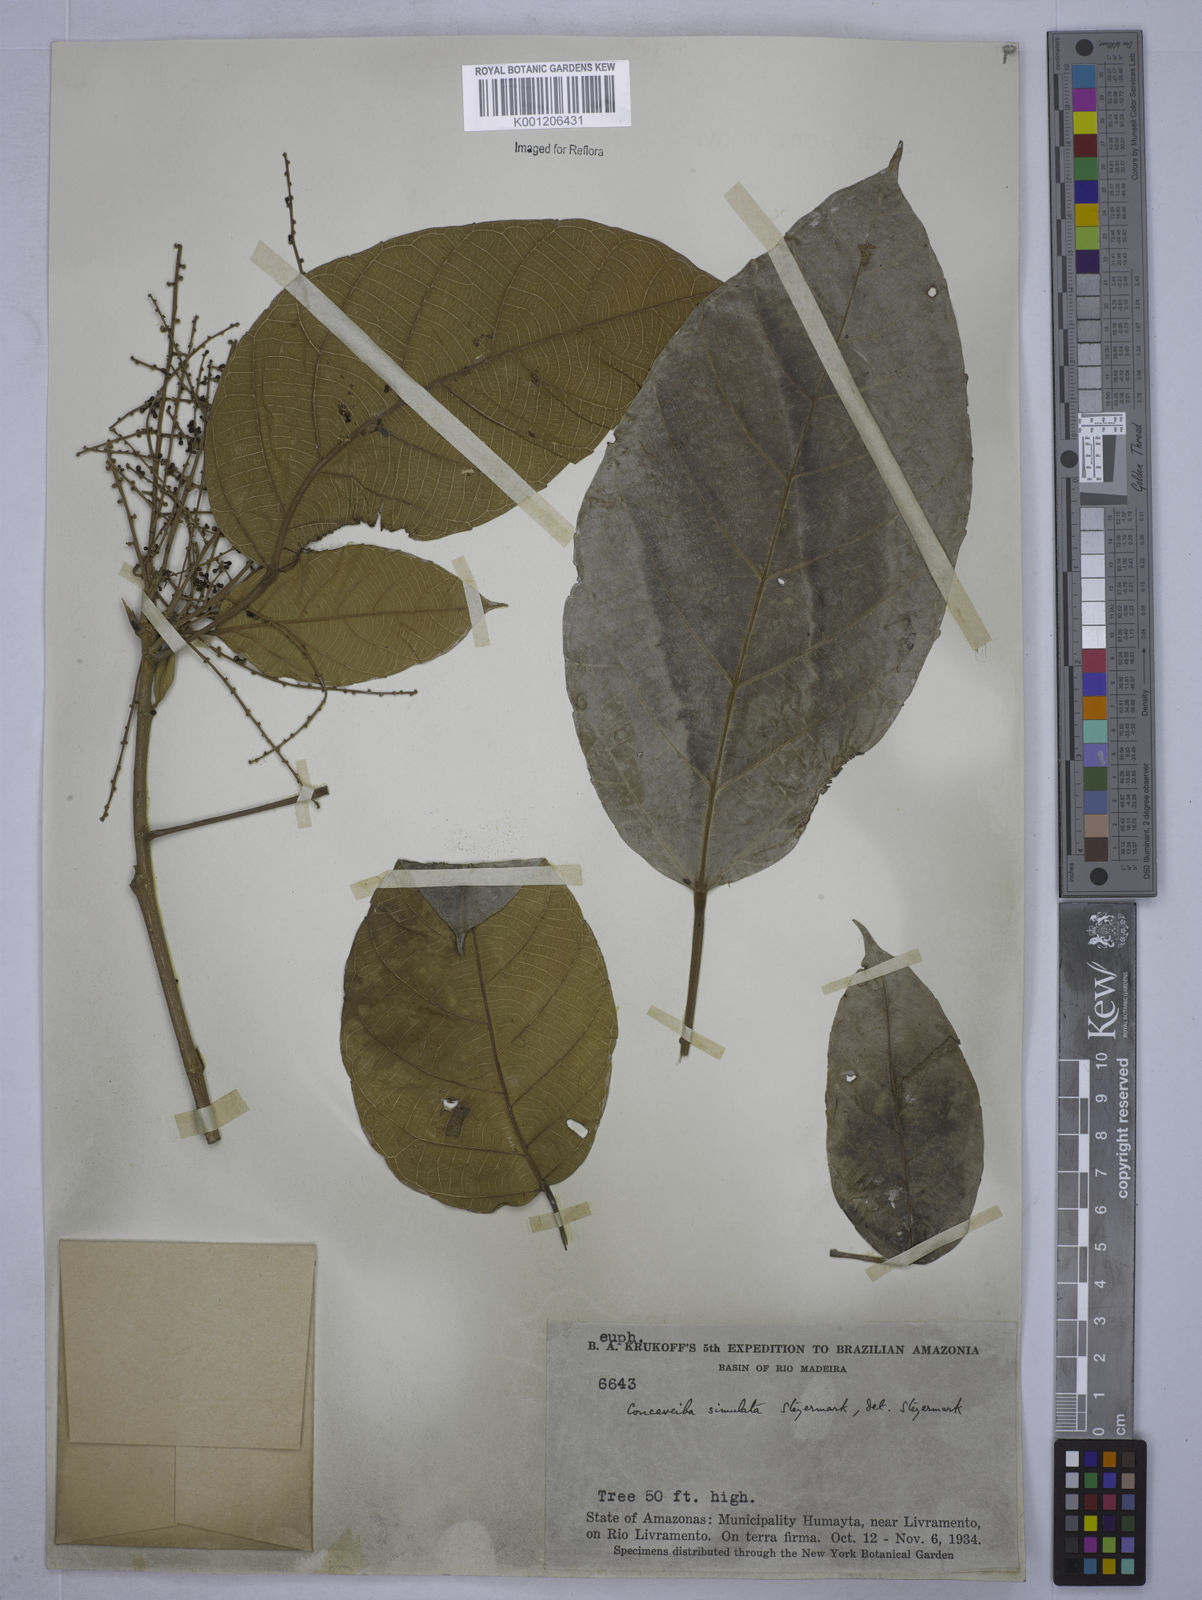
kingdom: Plantae
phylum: Tracheophyta
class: Magnoliopsida
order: Malpighiales
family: Euphorbiaceae
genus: Conceveiba
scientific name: Conceveiba krukoffii
